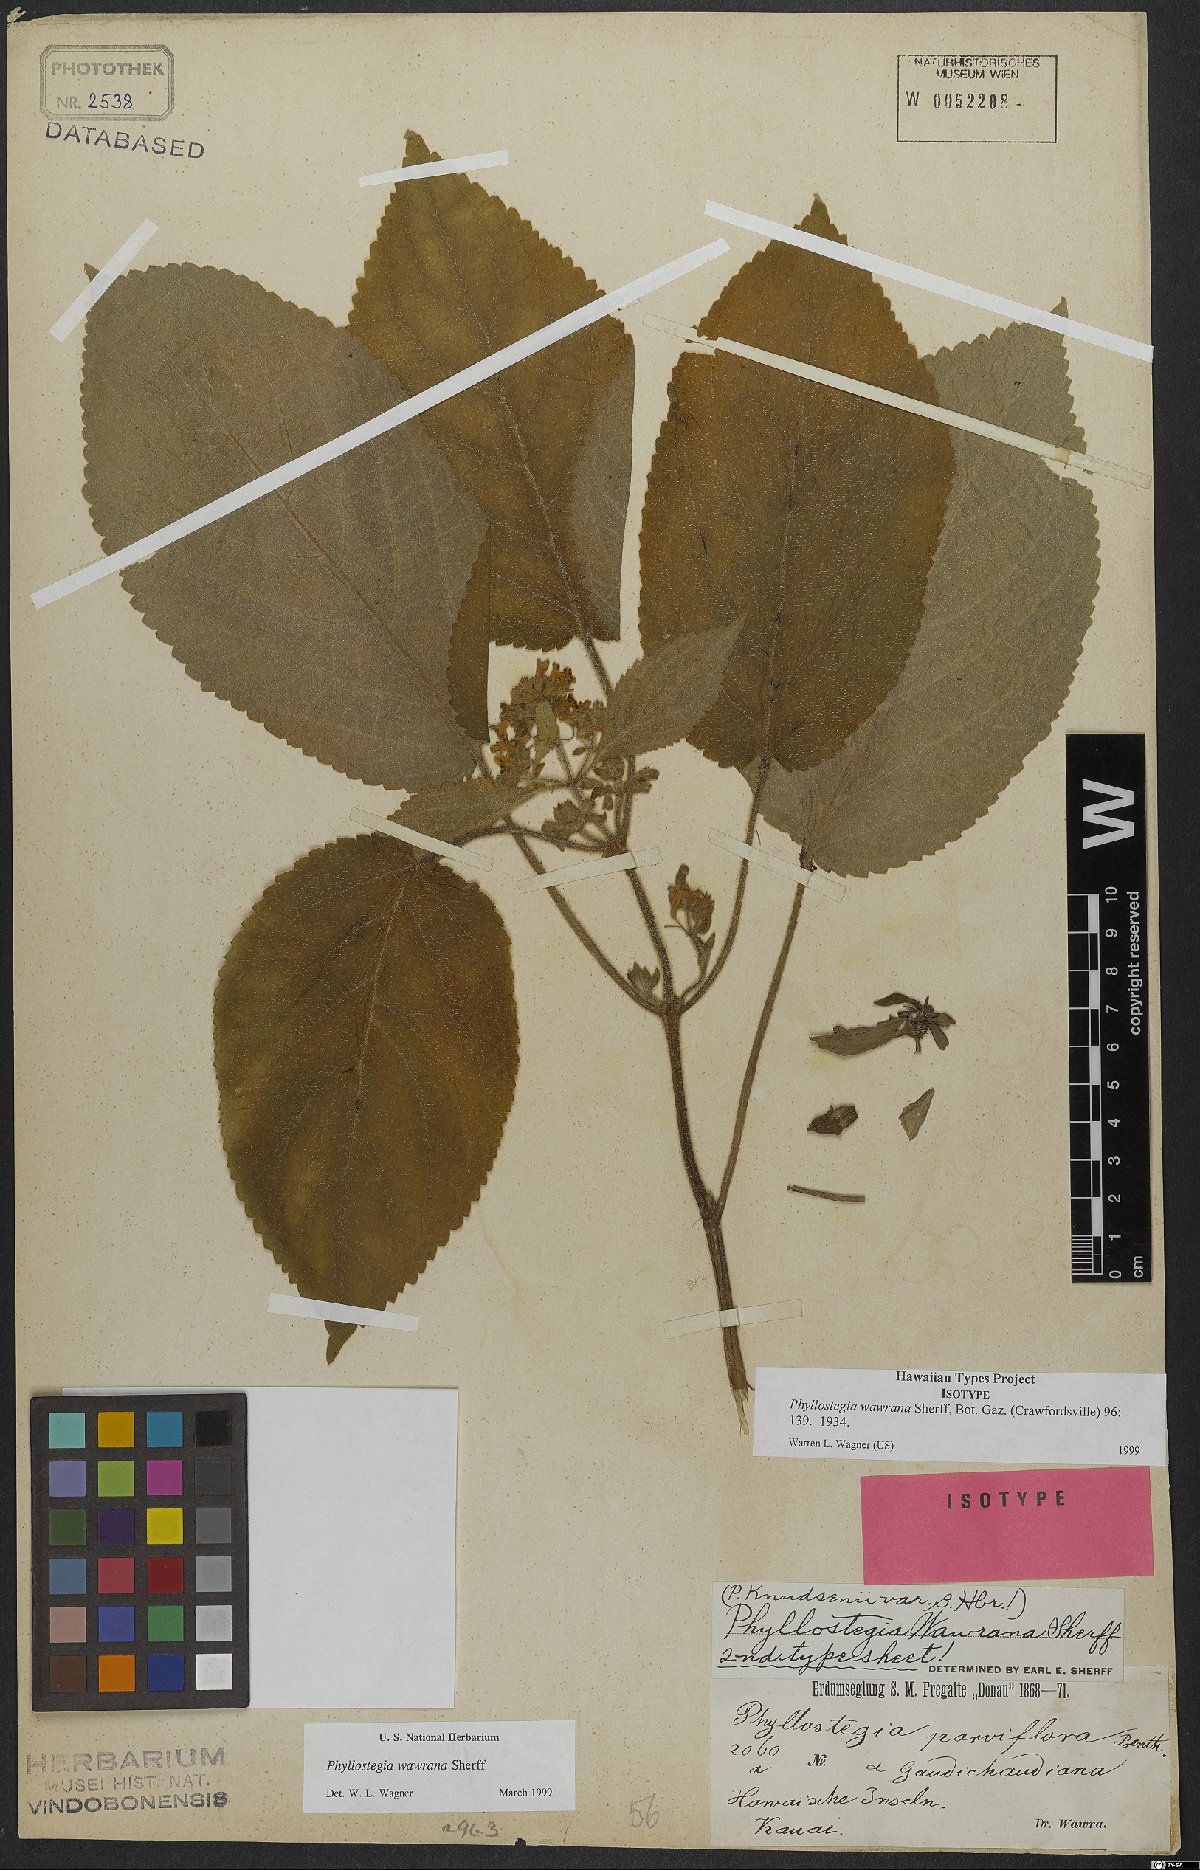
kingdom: Plantae
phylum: Tracheophyta
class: Magnoliopsida
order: Lamiales
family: Lamiaceae
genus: Phyllostegia
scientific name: Phyllostegia wawrana
